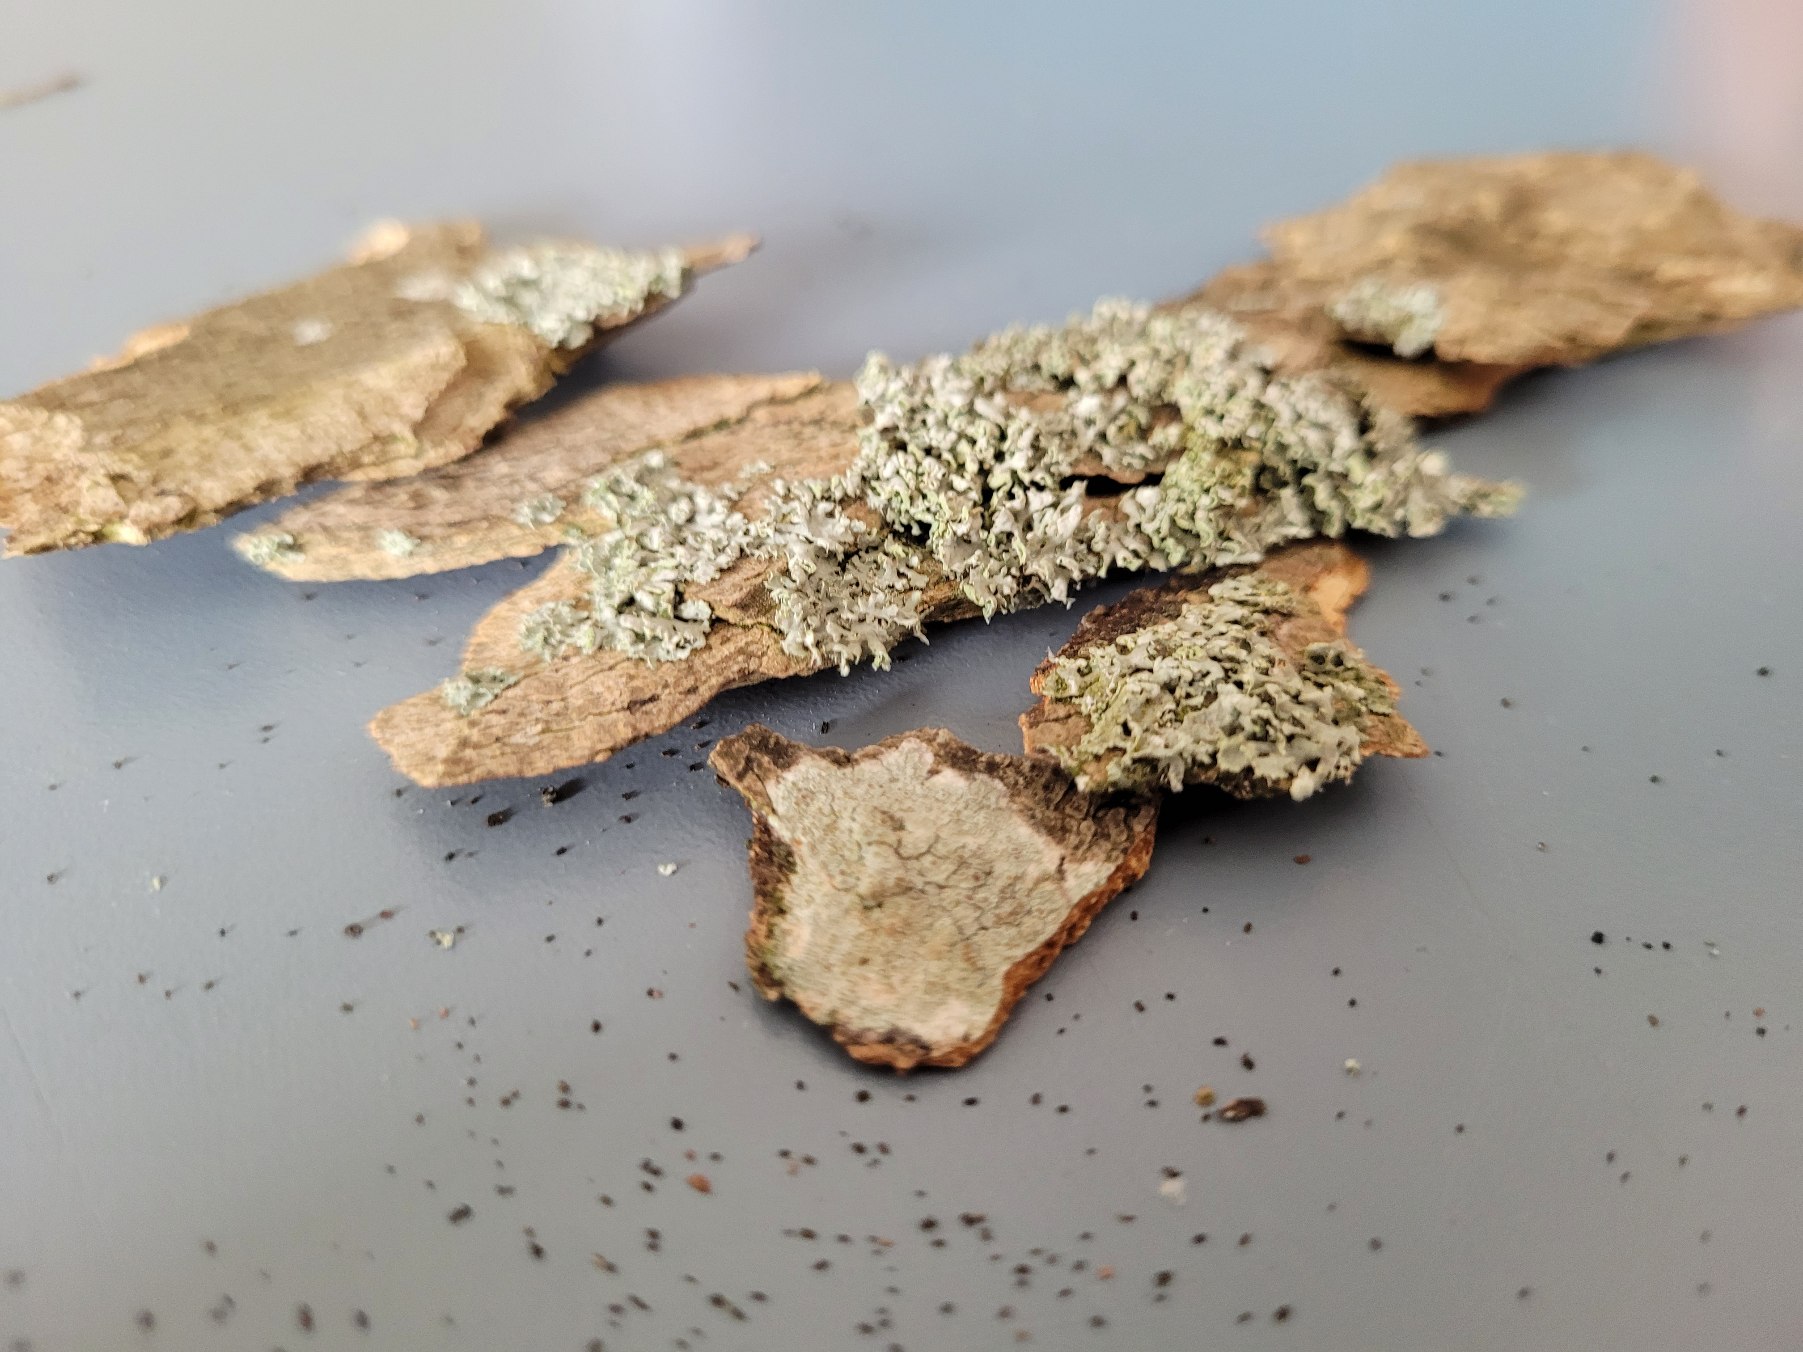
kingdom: Fungi
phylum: Ascomycota
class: Lecanoromycetes
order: Caliciales
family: Physciaceae
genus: Physcia
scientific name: Physcia tenella
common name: Spæd rosetlav
